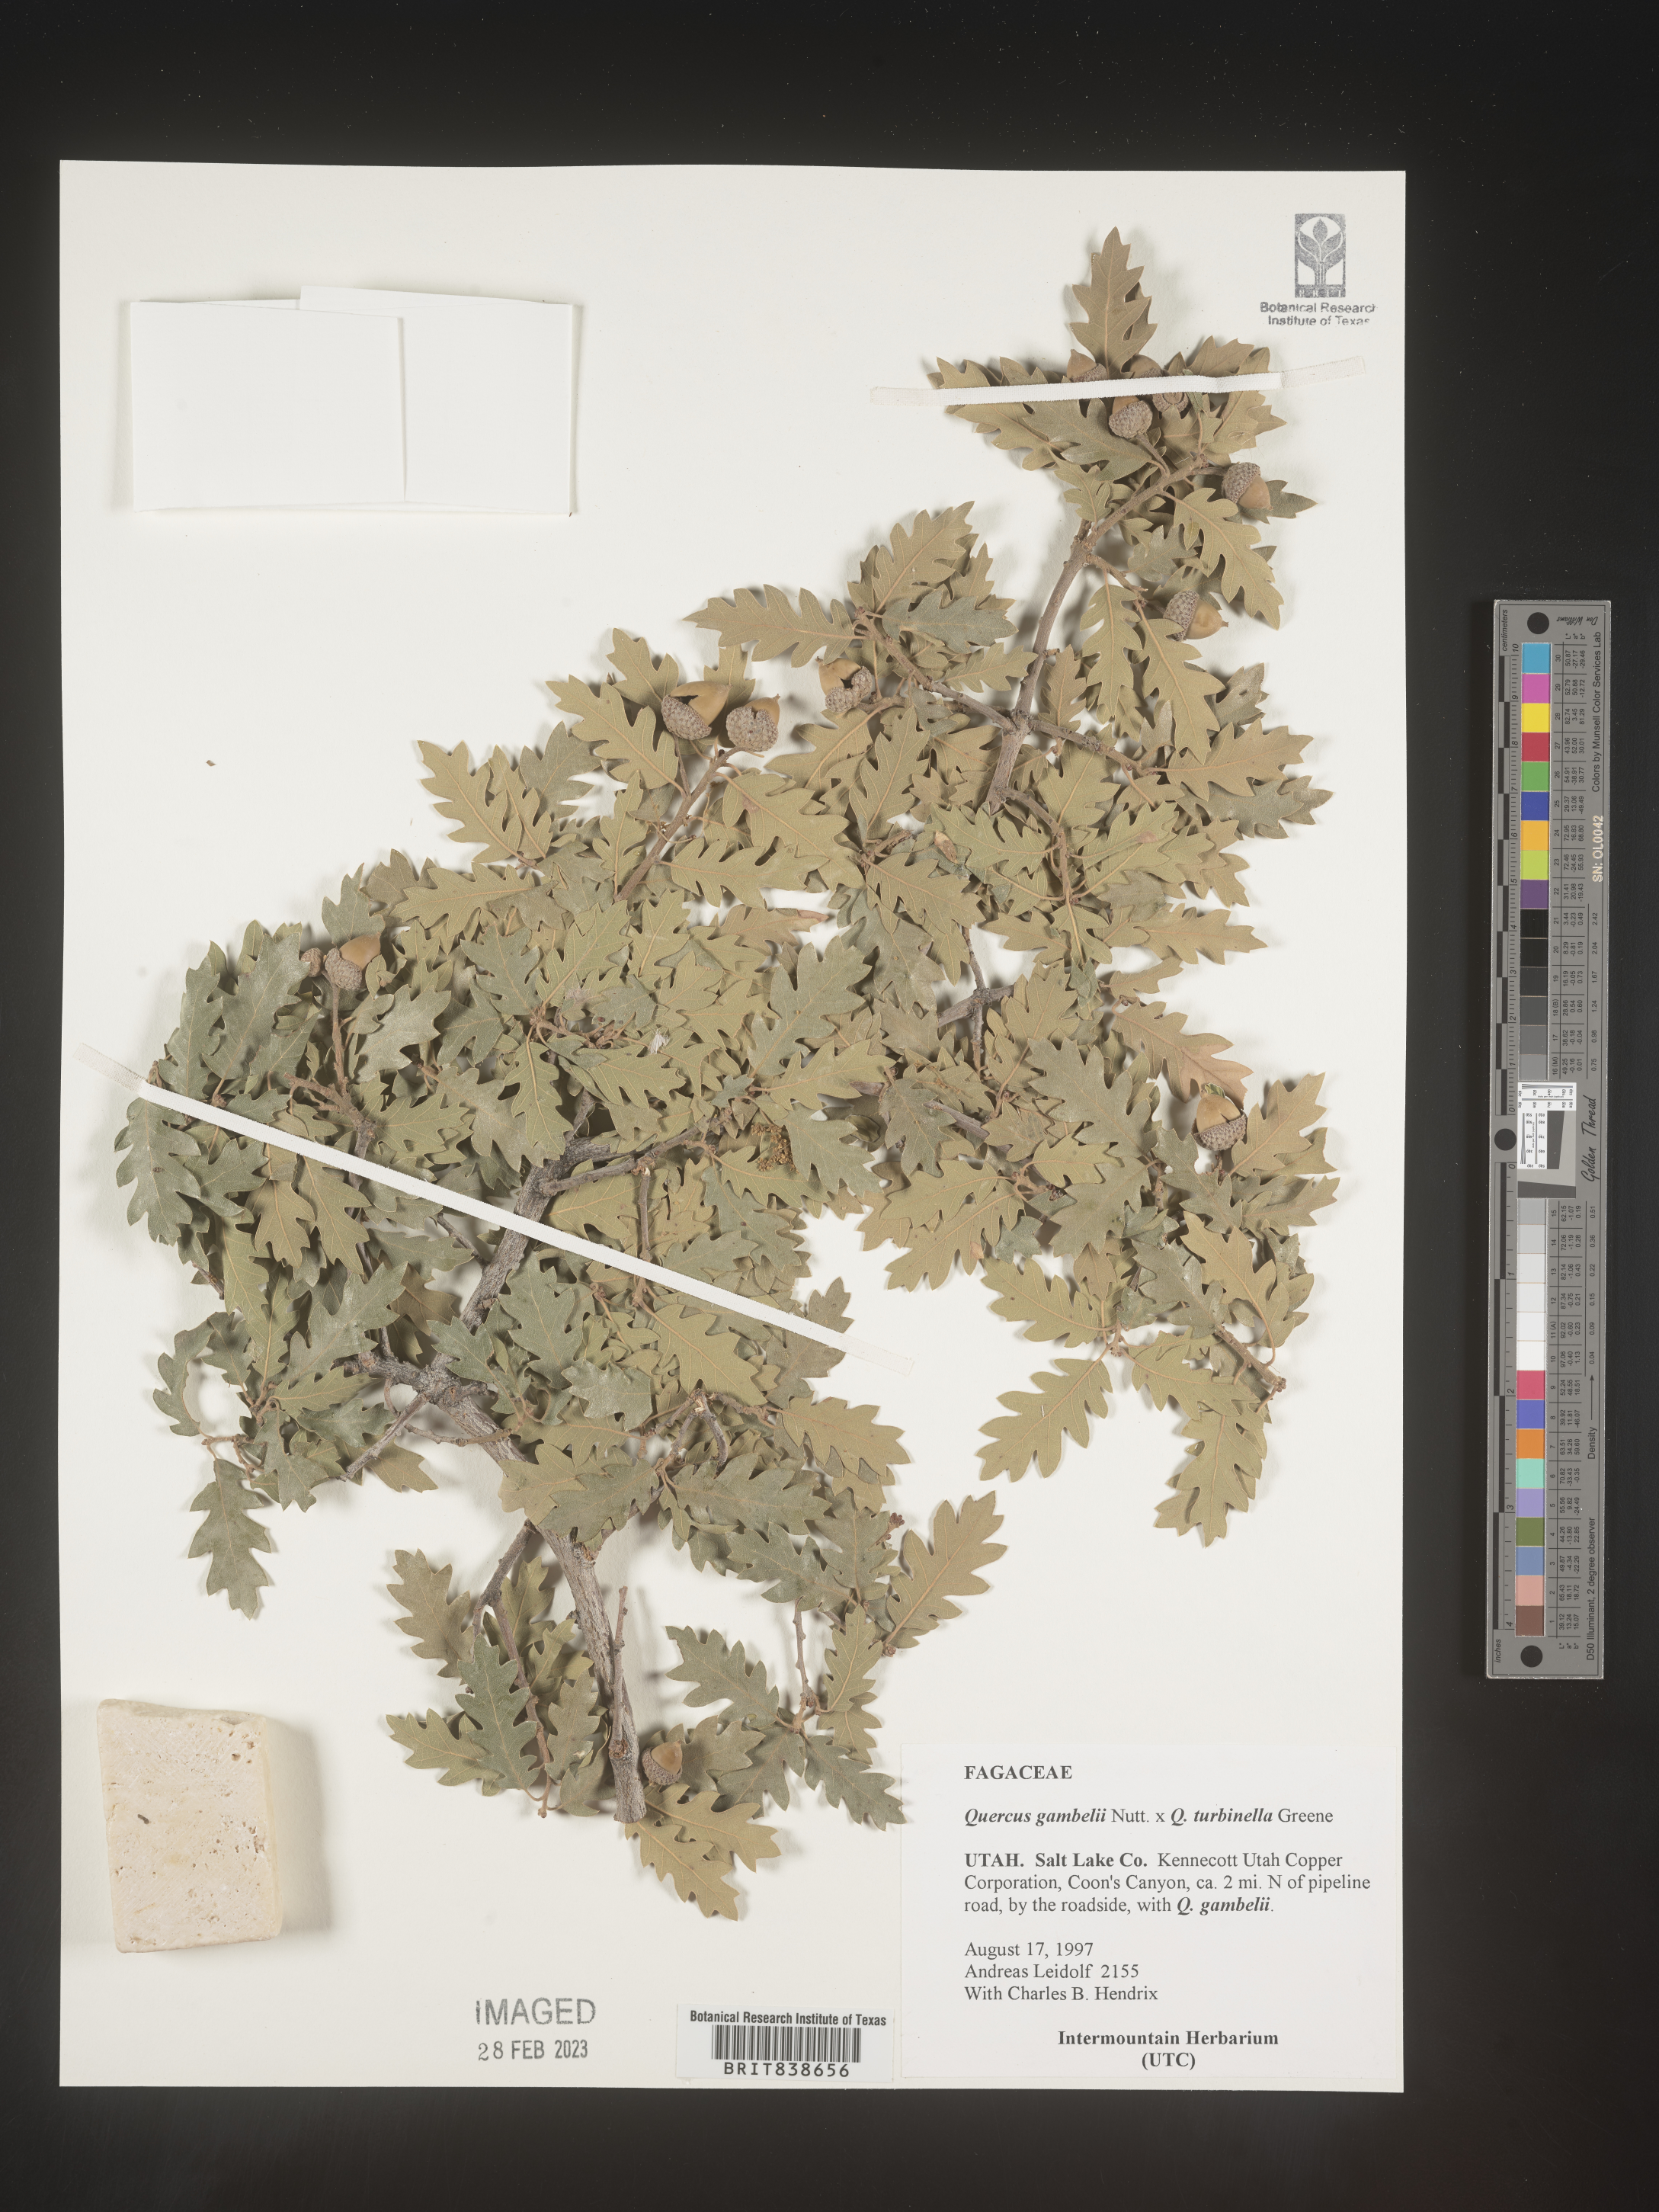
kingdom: Plantae
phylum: Tracheophyta
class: Magnoliopsida
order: Fagales
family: Fagaceae
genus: Quercus
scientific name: Quercus gambelii
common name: Gambel oak
